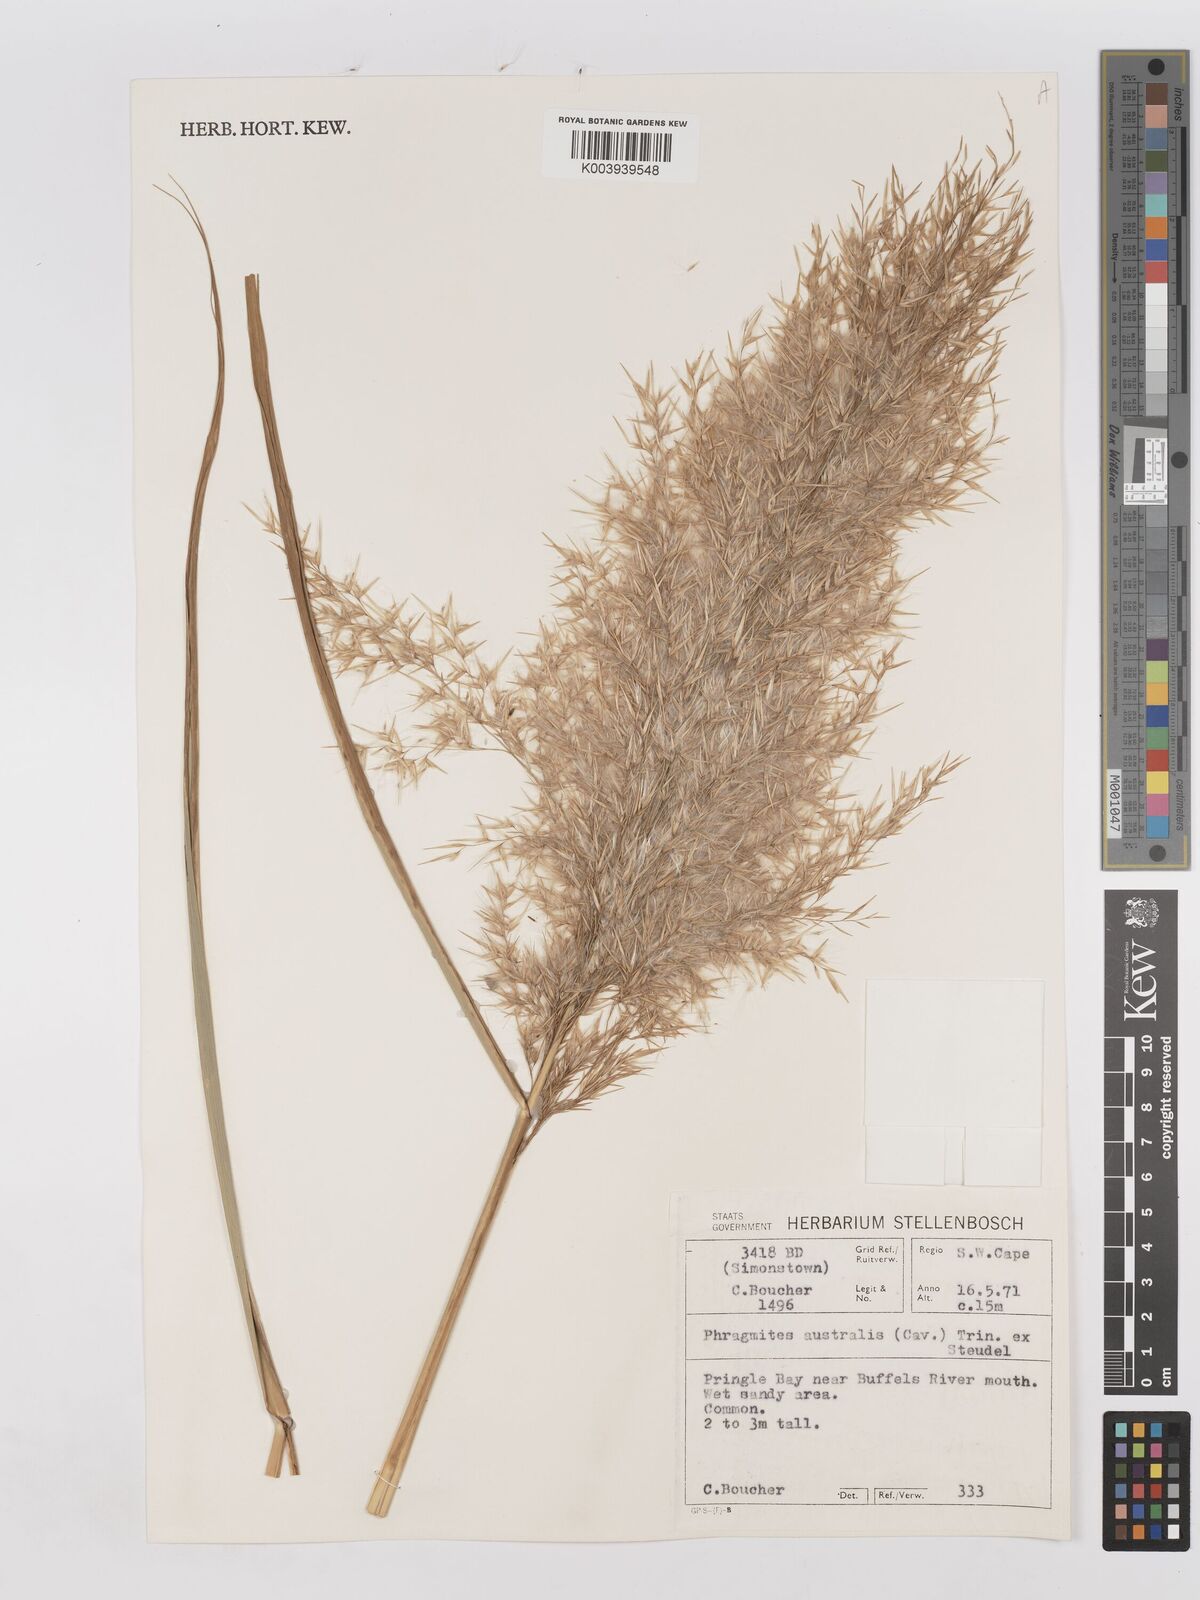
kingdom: Plantae
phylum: Tracheophyta
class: Liliopsida
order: Poales
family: Poaceae
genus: Phragmites
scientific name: Phragmites australis
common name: Common reed
